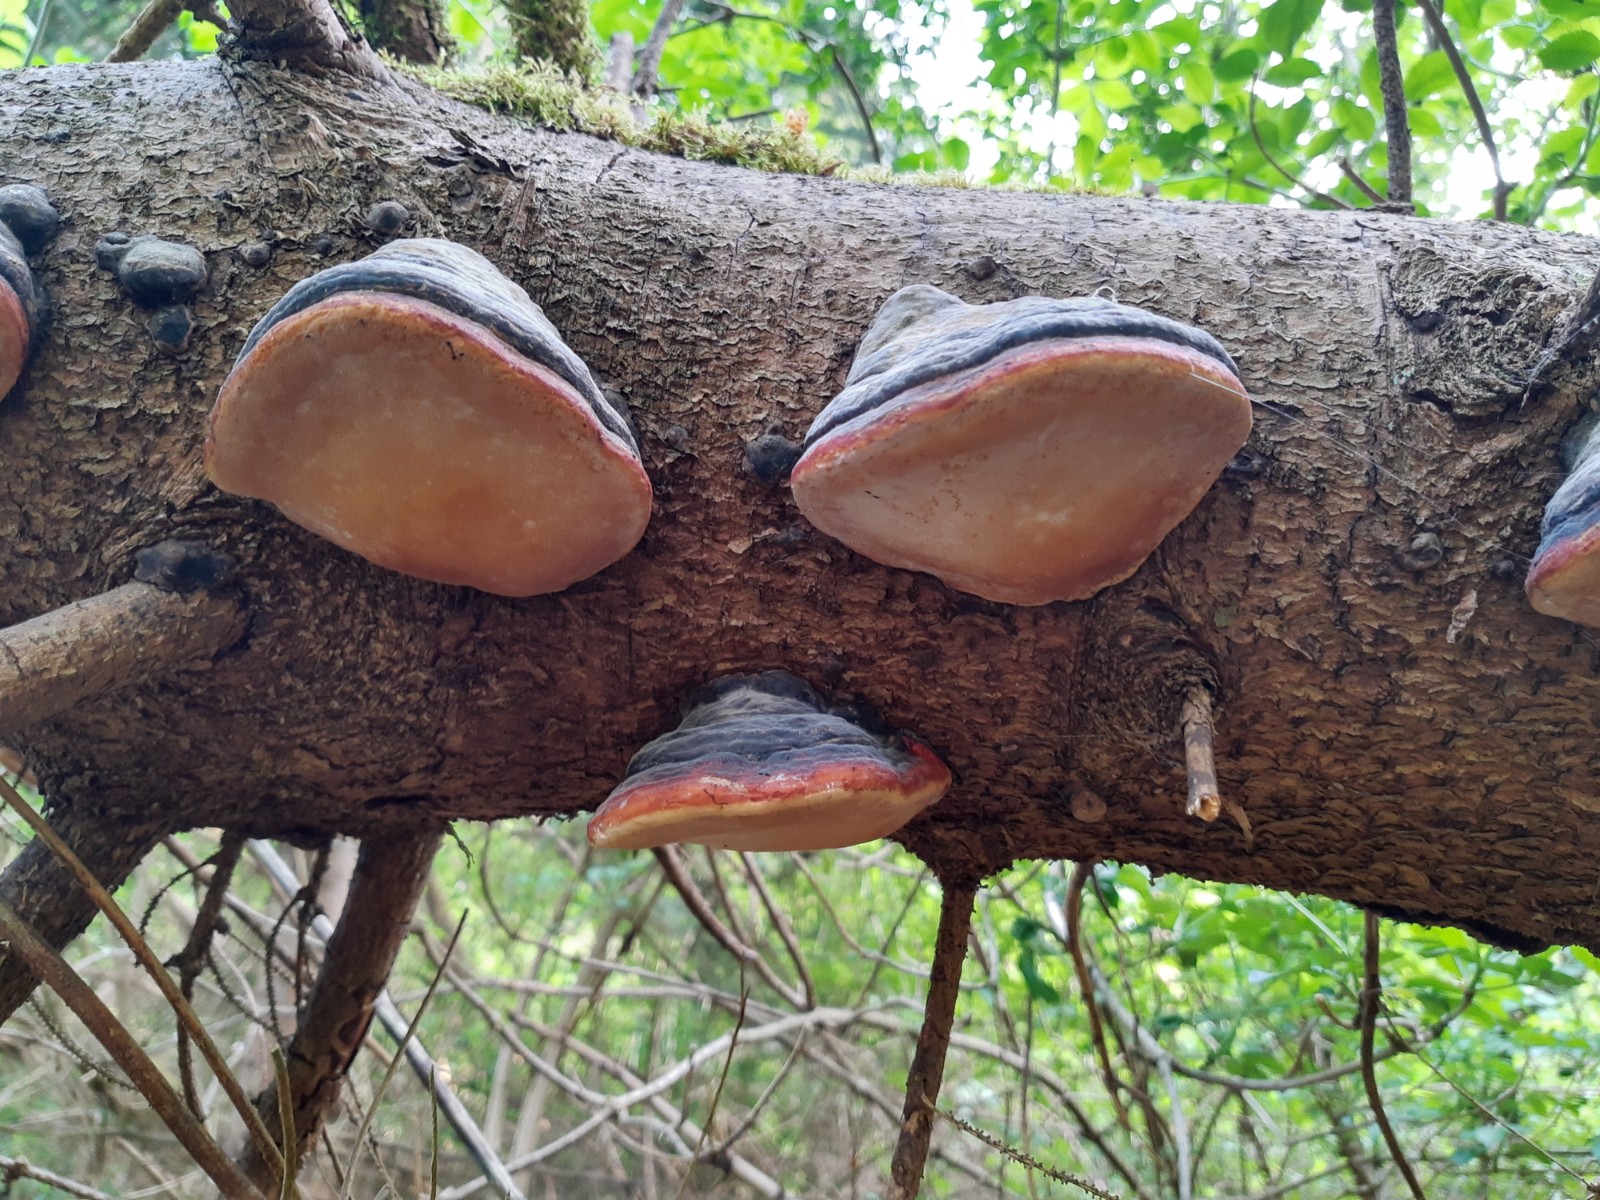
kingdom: Fungi
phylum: Basidiomycota
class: Agaricomycetes
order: Polyporales
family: Fomitopsidaceae
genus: Fomitopsis
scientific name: Fomitopsis pinicola
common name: randbæltet hovporesvamp
